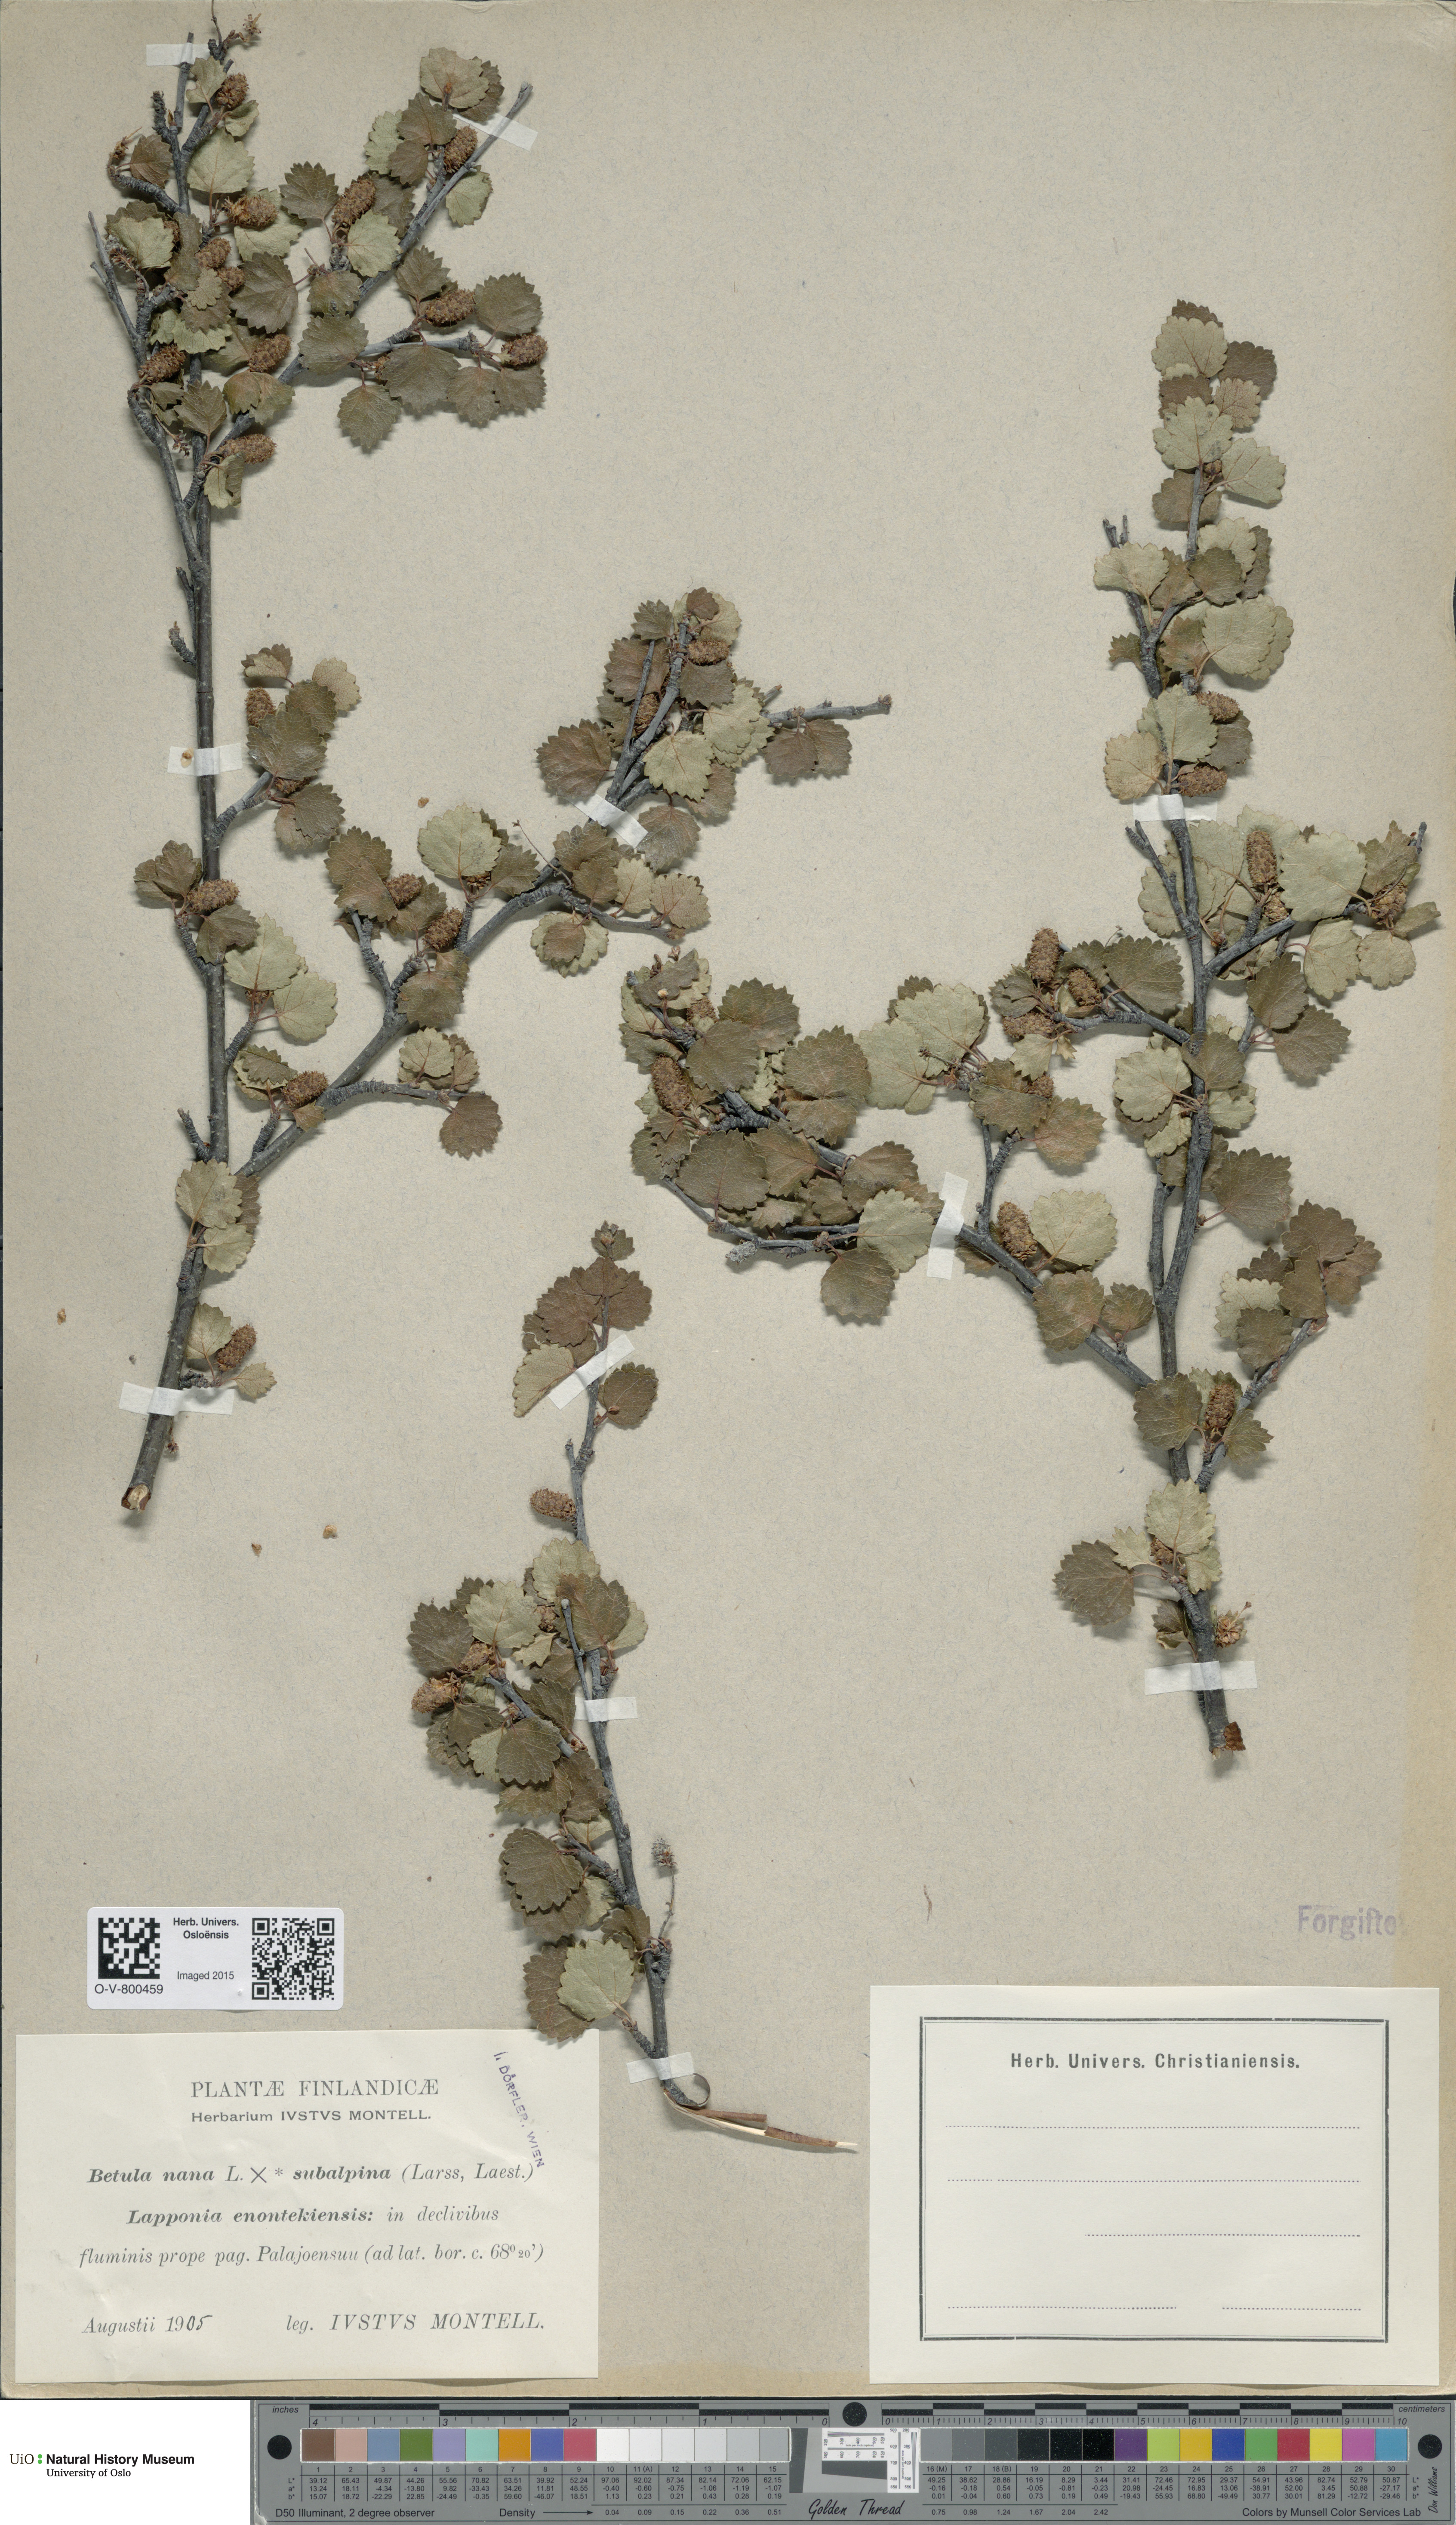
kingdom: Plantae
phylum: Tracheophyta
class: Magnoliopsida
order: Fagales
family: Betulaceae
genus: Betula
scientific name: Betula nana
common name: Arctic dwarf birch
